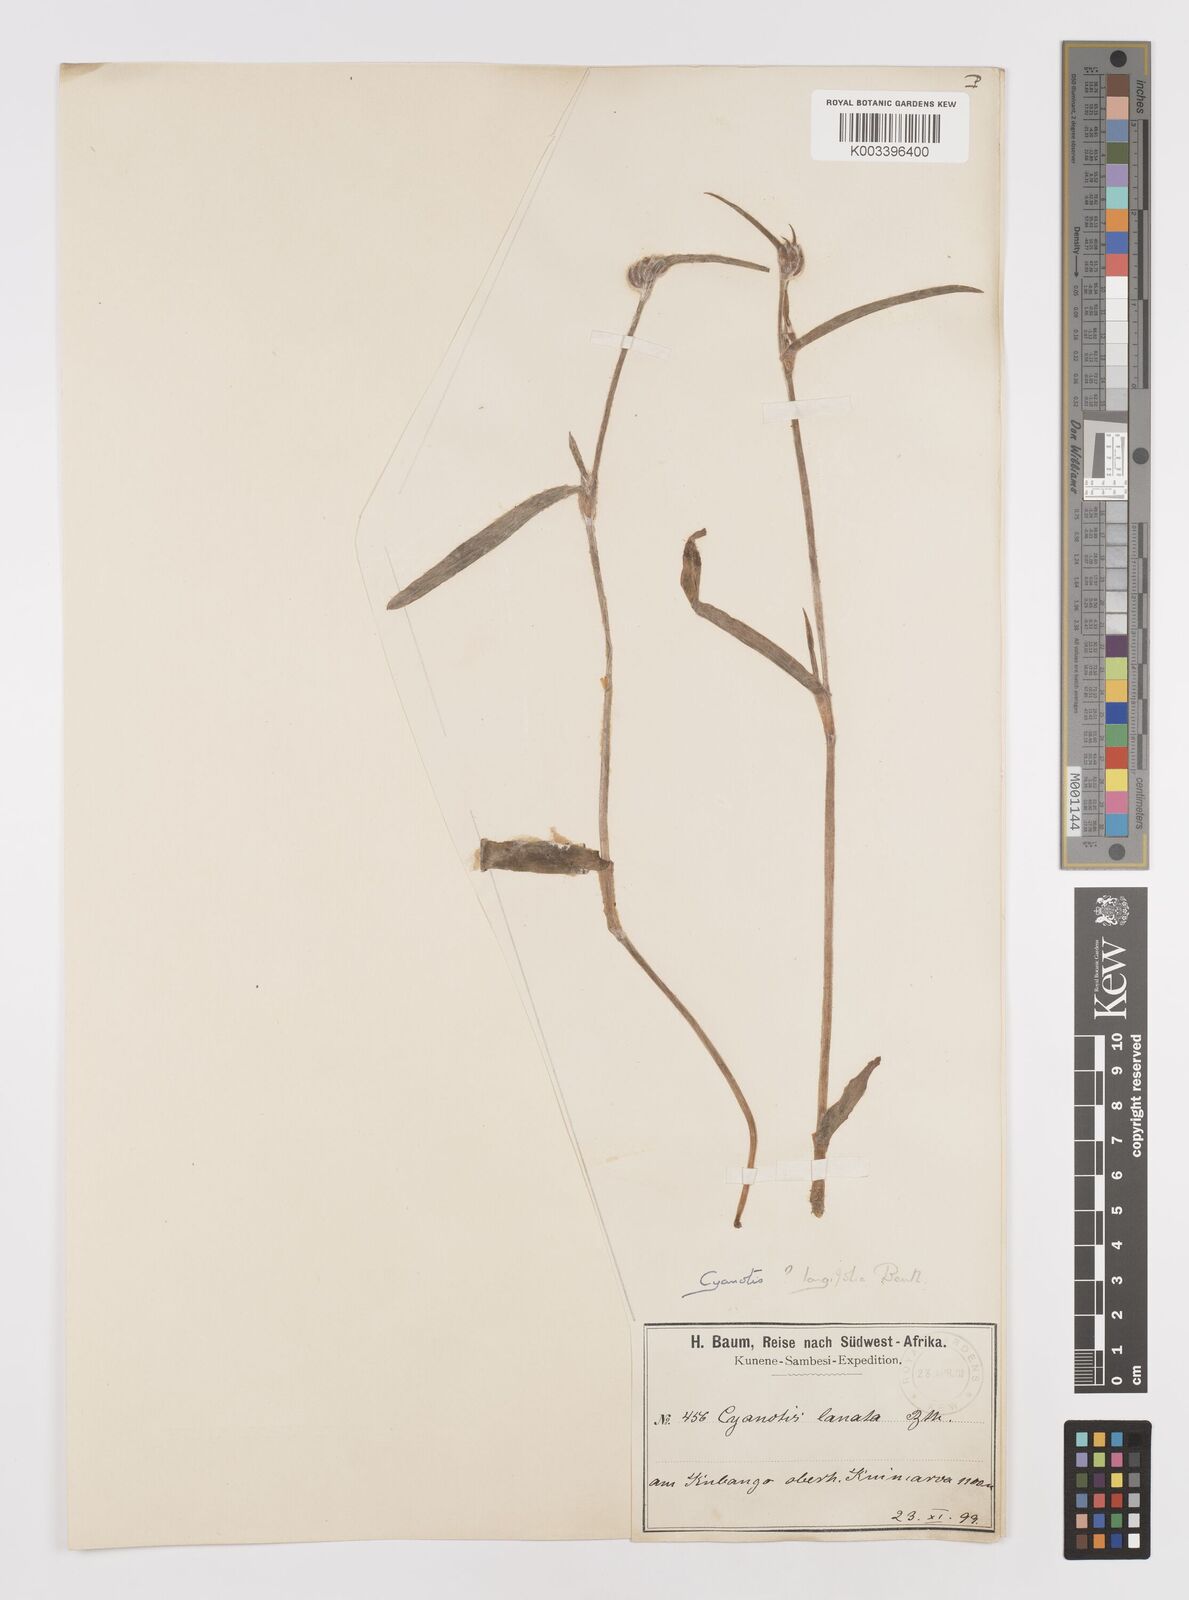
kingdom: Plantae
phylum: Tracheophyta
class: Liliopsida
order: Commelinales
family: Commelinaceae
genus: Cyanotis
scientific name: Cyanotis longifolia
